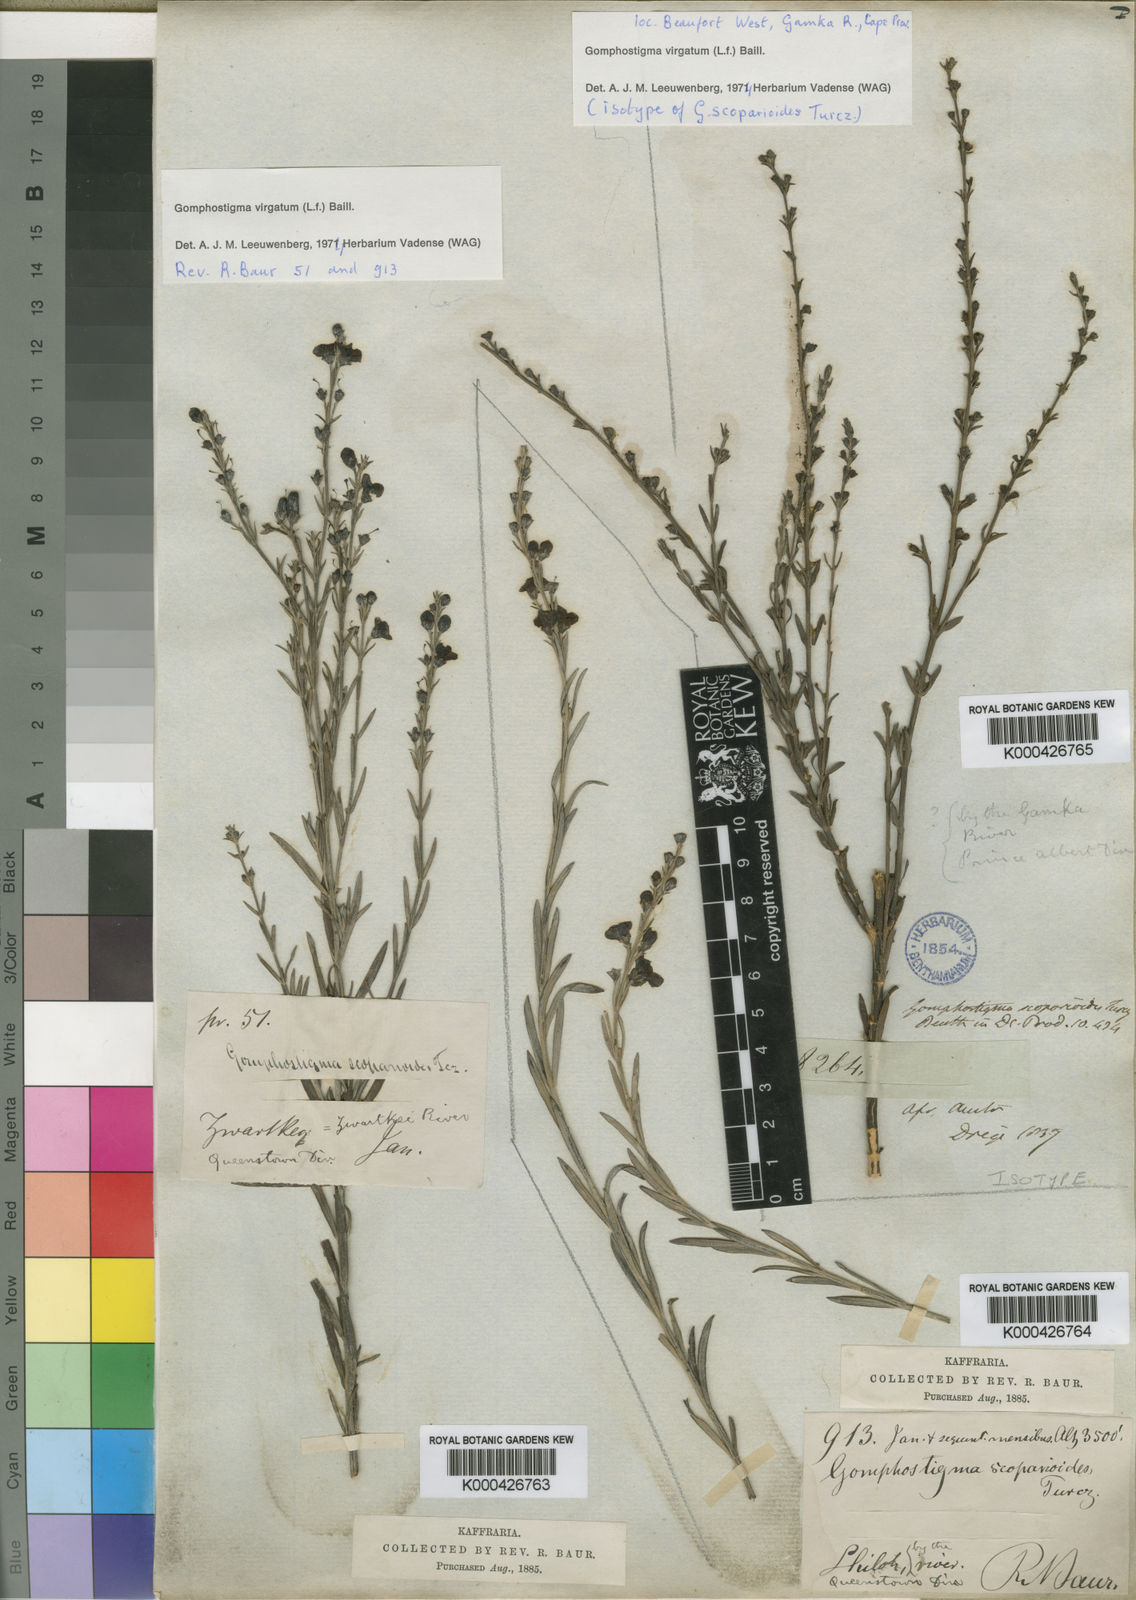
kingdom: Plantae
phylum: Tracheophyta
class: Magnoliopsida
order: Lamiales
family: Scrophulariaceae
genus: Buddleja
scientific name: Buddleja virgata
